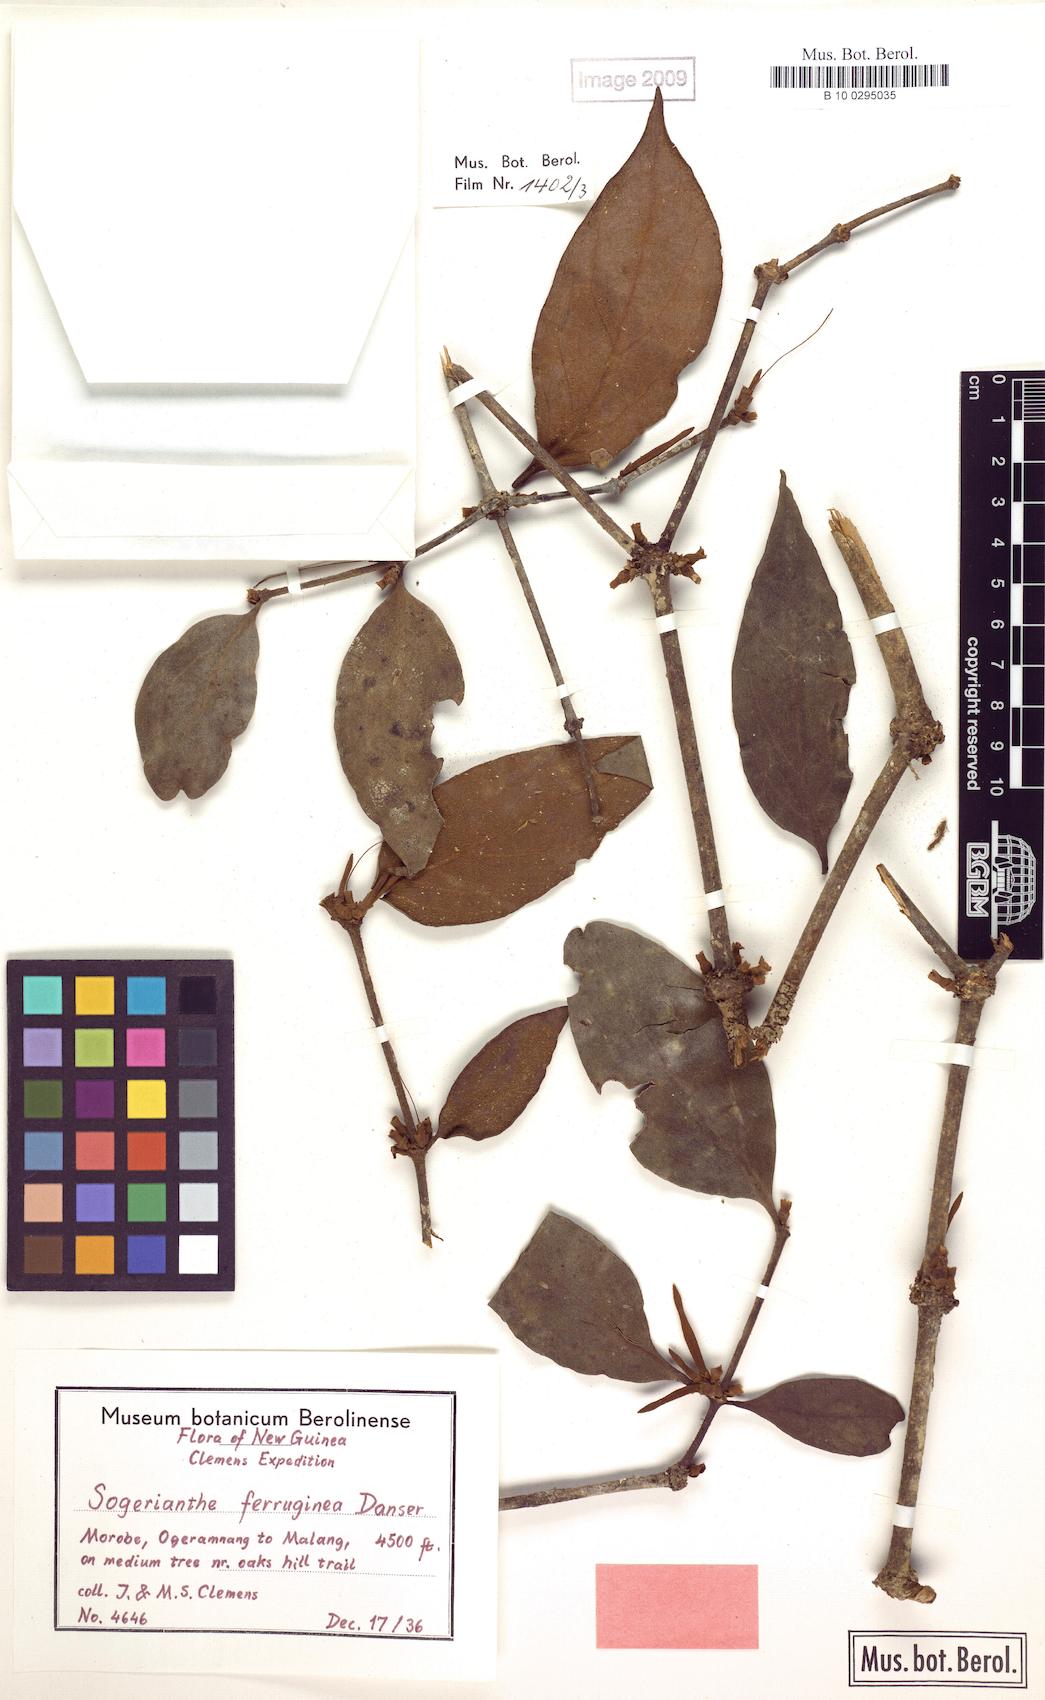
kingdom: Plantae
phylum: Tracheophyta
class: Magnoliopsida
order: Santalales
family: Loranthaceae
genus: Sogerianthe
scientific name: Sogerianthe sessiliflora
